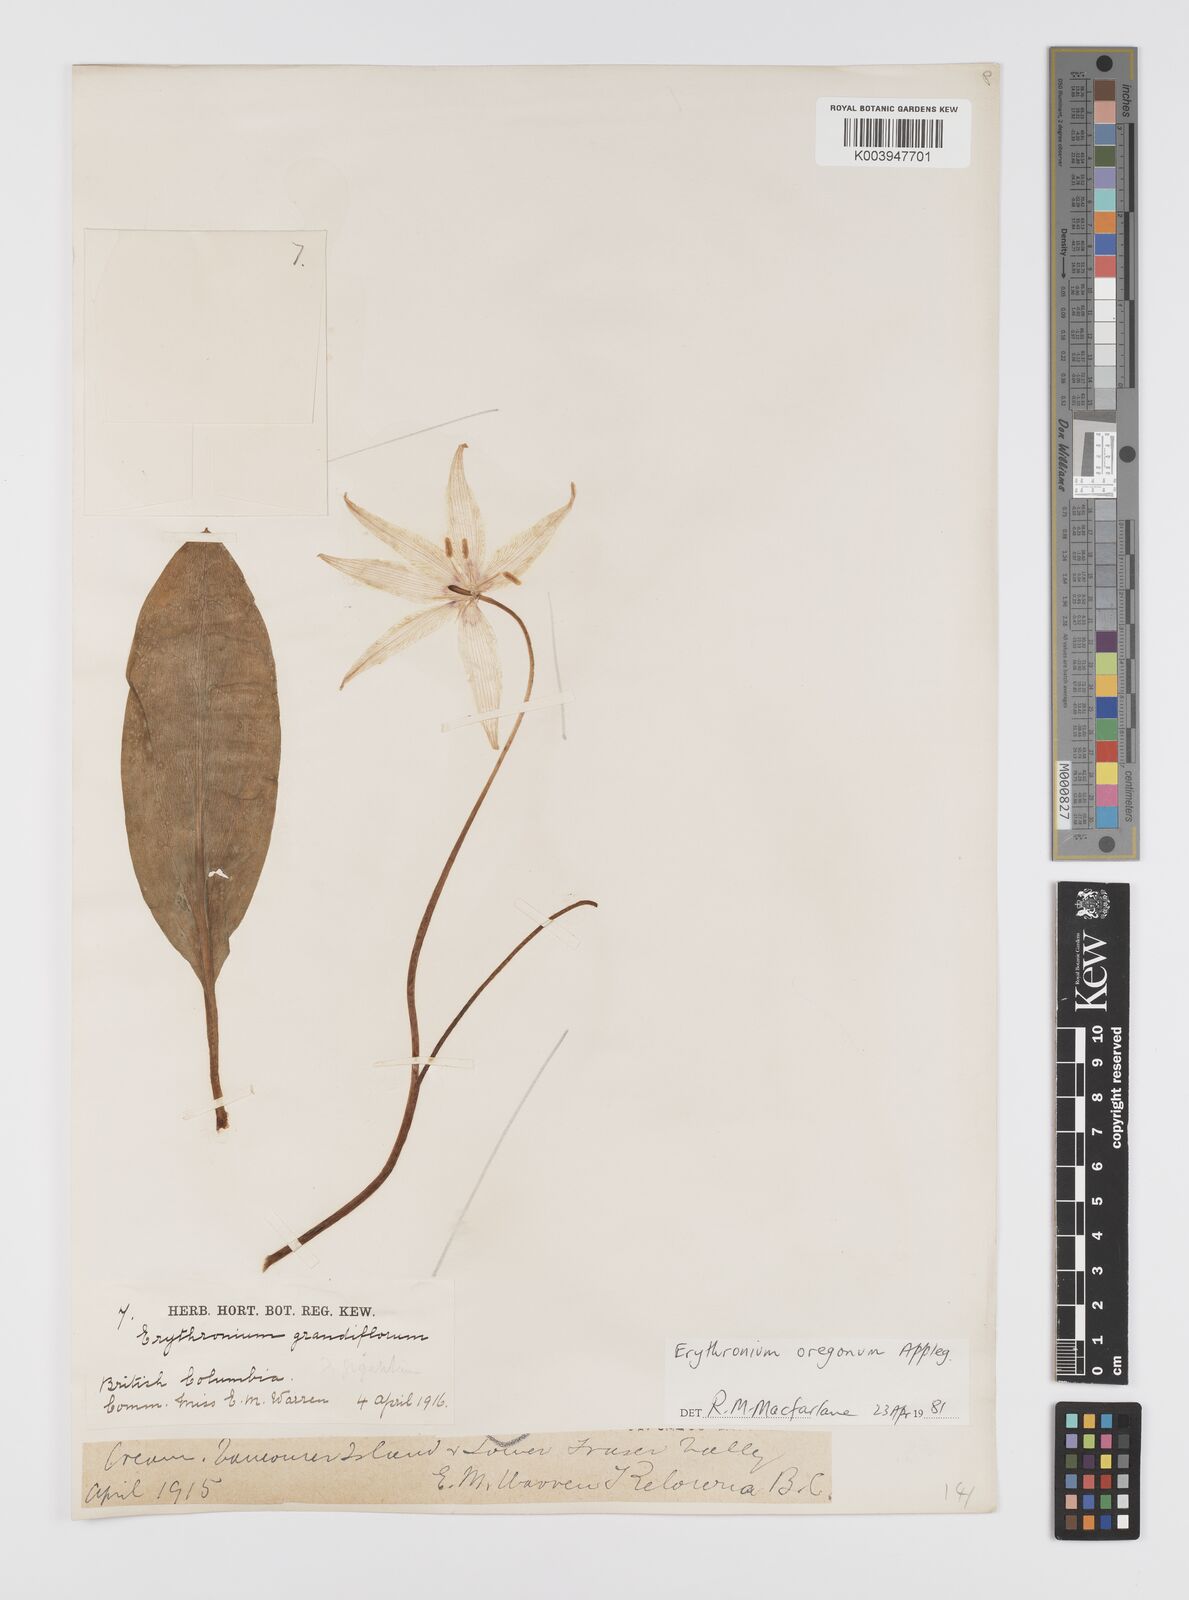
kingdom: Plantae
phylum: Tracheophyta
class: Liliopsida
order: Liliales
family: Liliaceae
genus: Erythronium
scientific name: Erythronium oregonum
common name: Giant adder's-tongue
